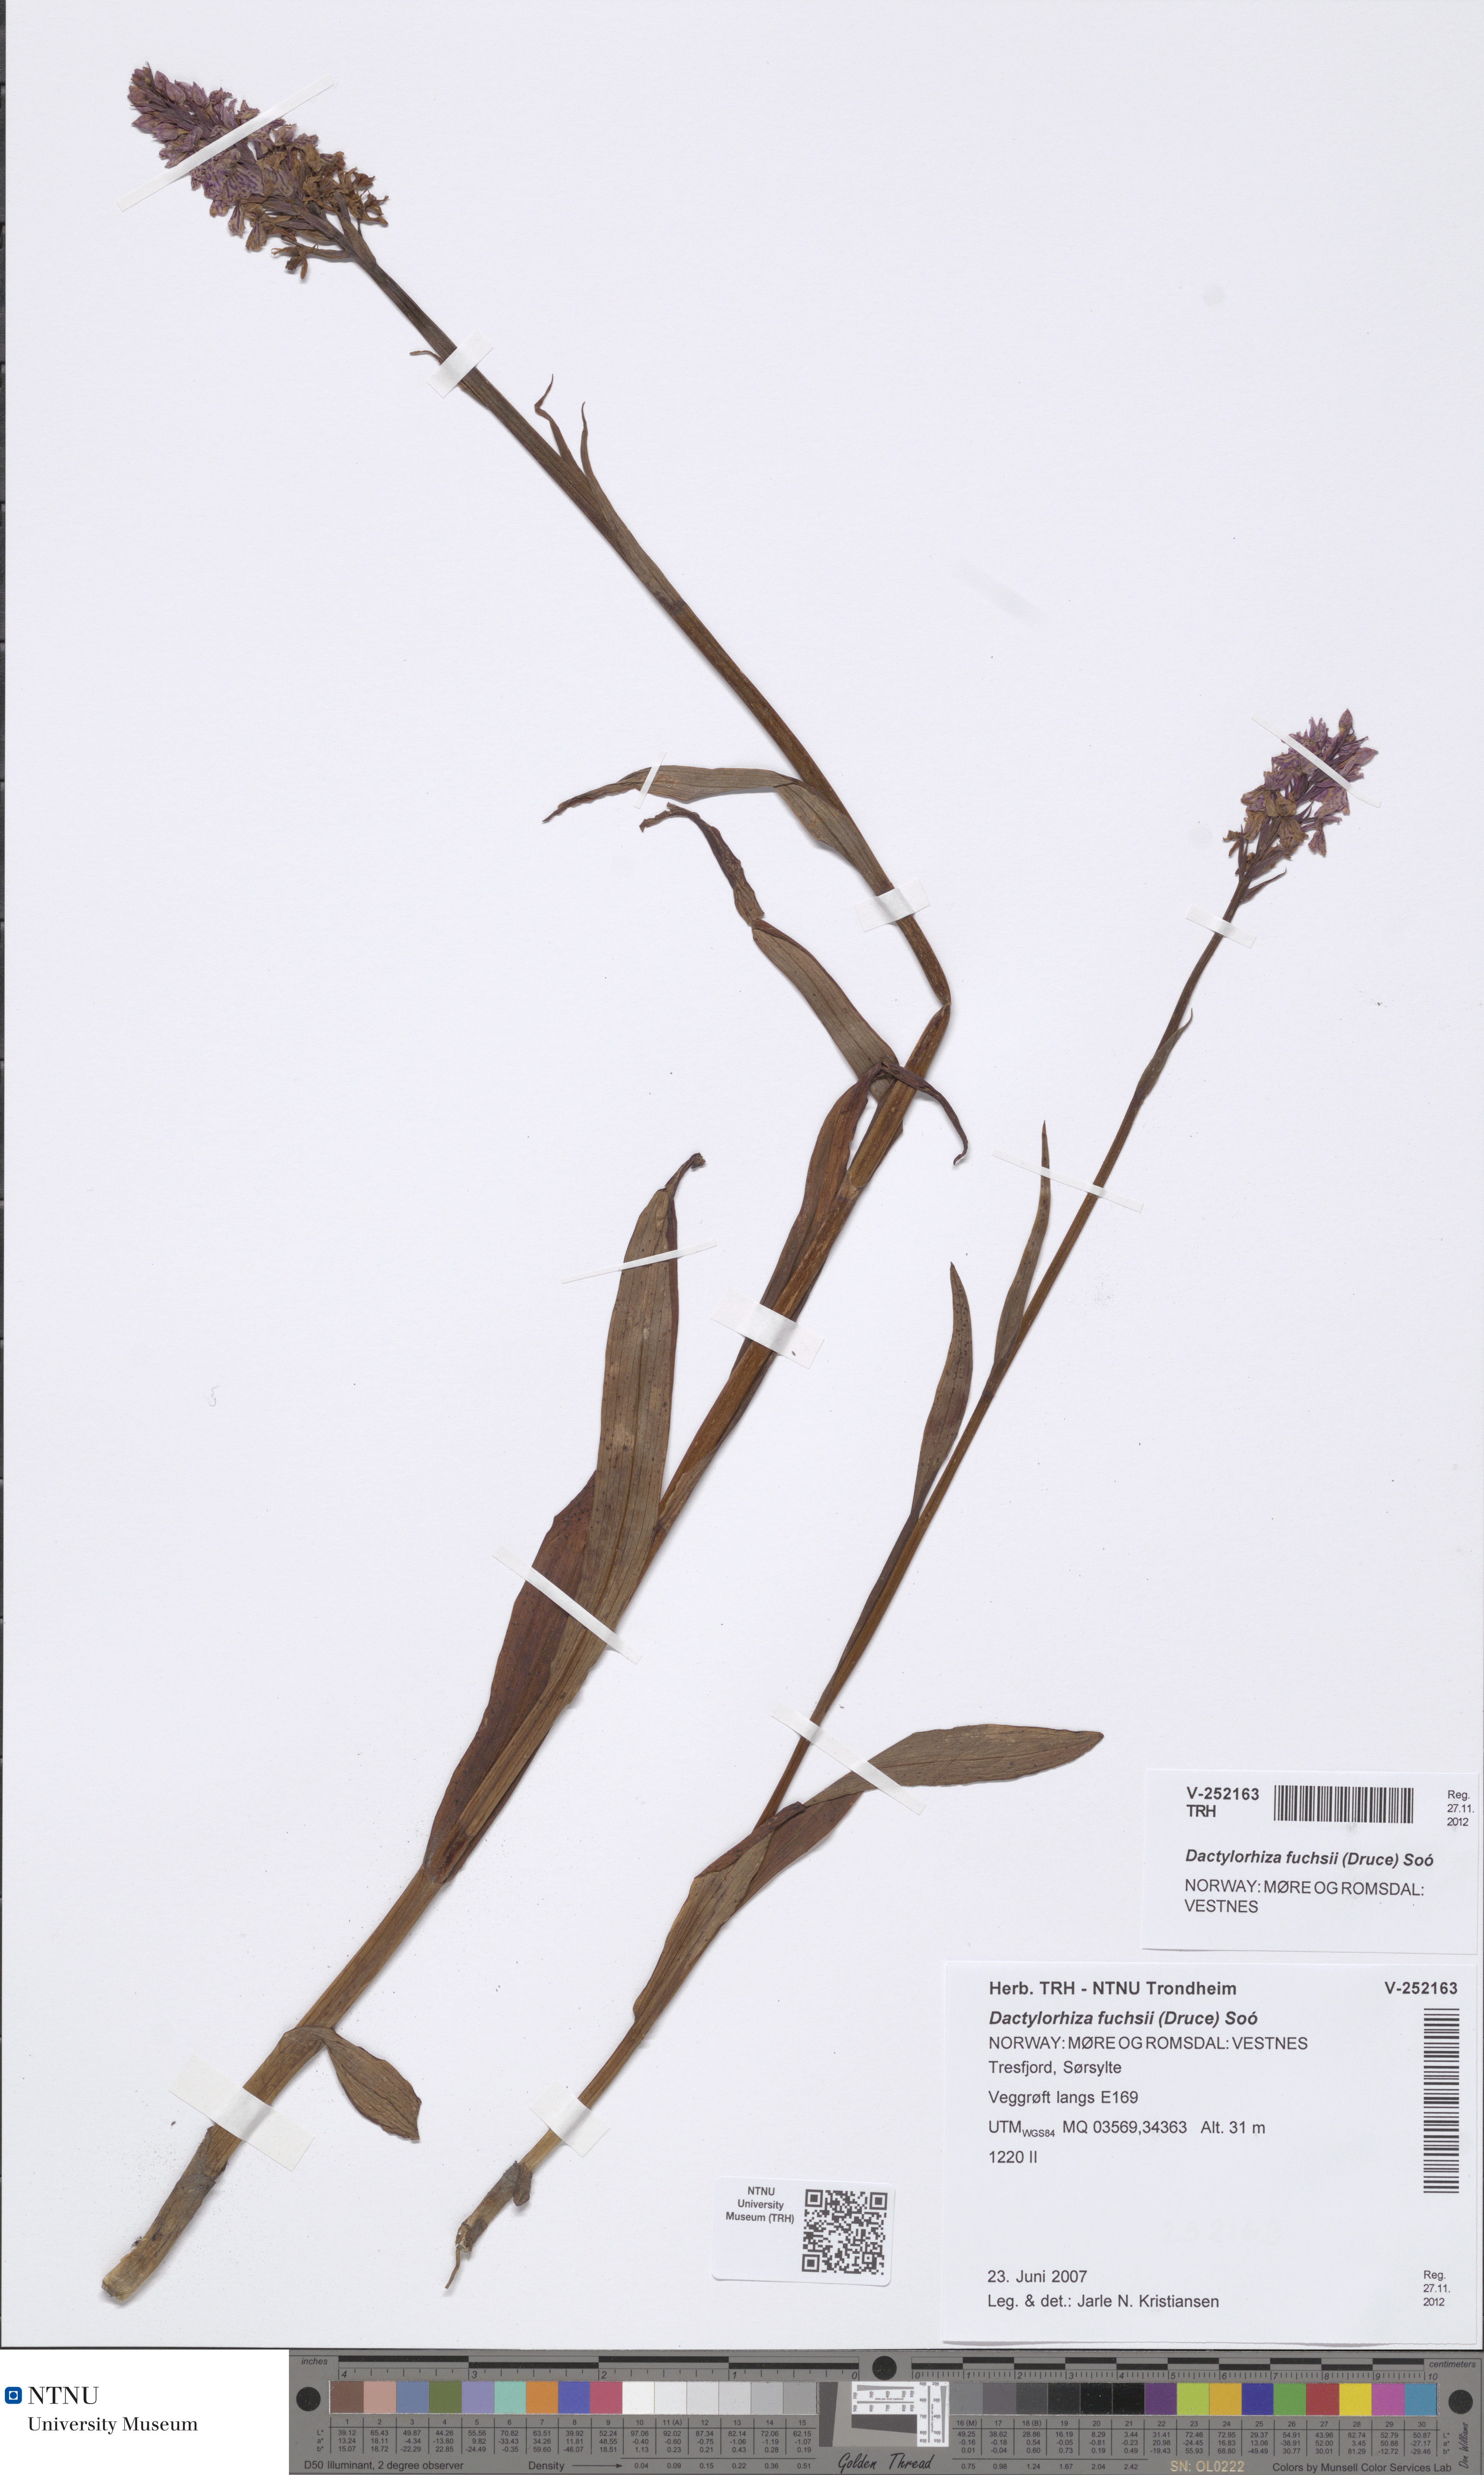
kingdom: Plantae
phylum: Tracheophyta
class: Liliopsida
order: Asparagales
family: Orchidaceae
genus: Dactylorhiza
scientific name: Dactylorhiza maculata
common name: Heath spotted-orchid
